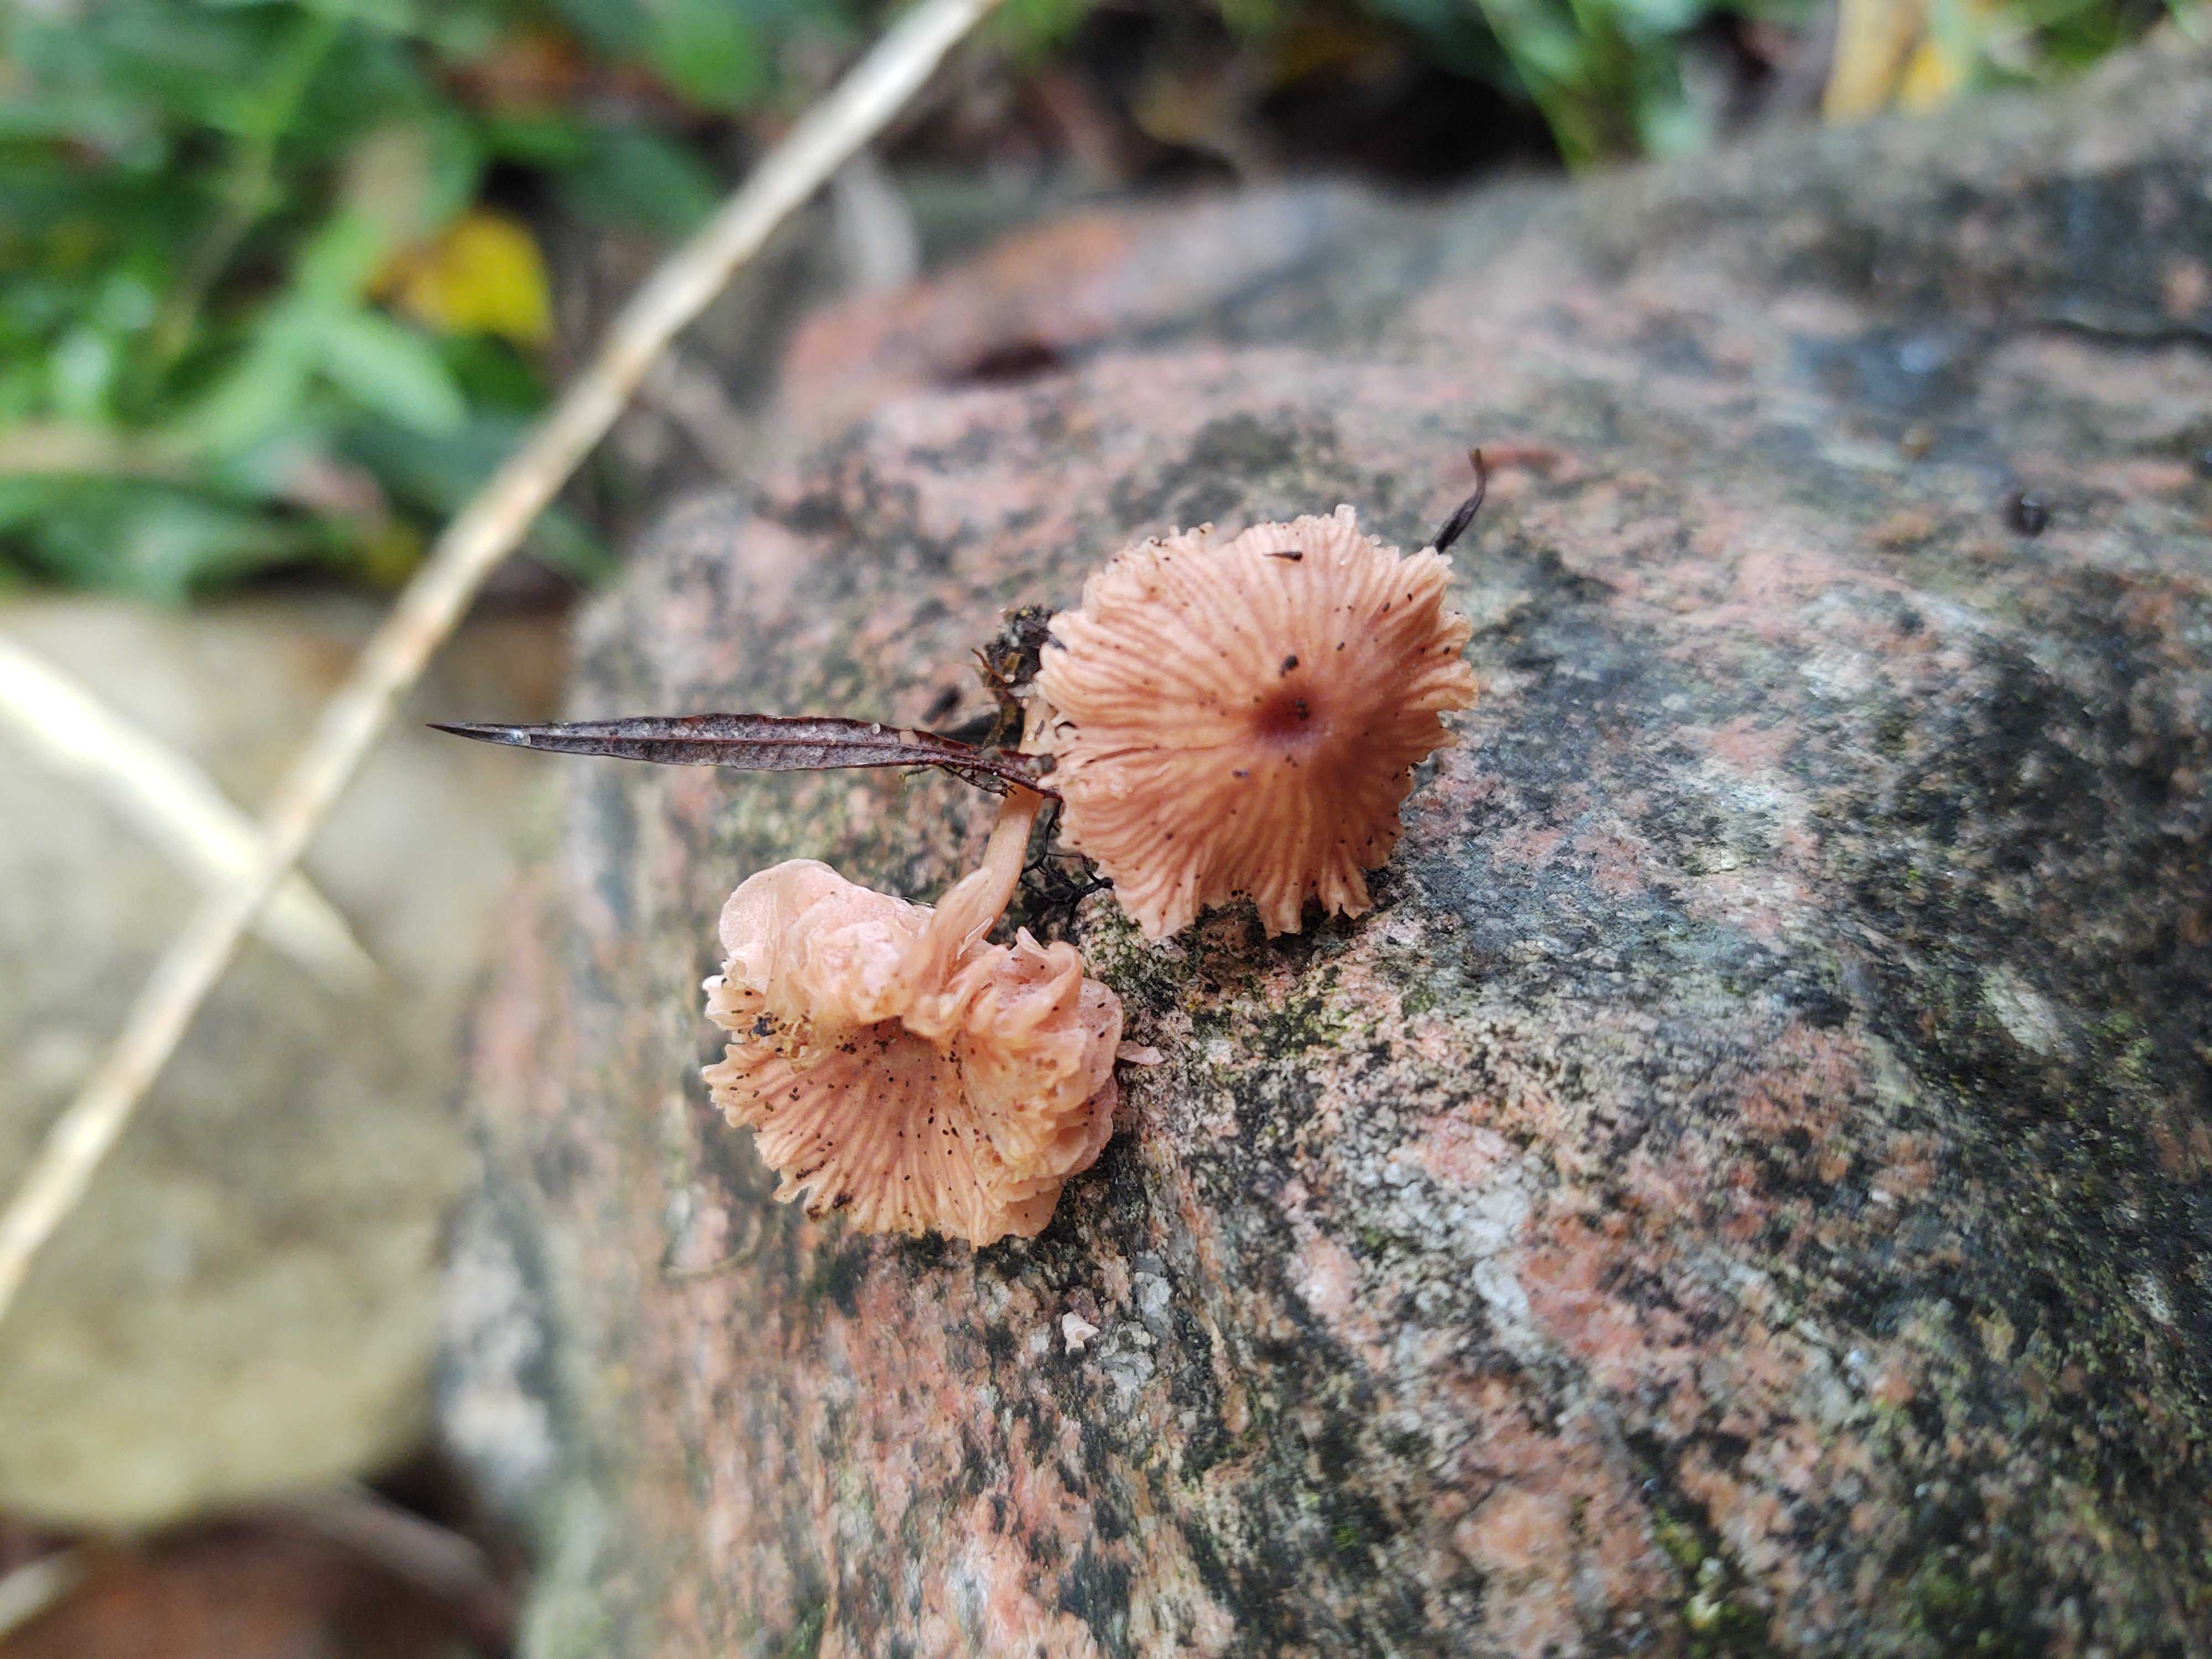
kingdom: Fungi
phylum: Basidiomycota
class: Agaricomycetes
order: Agaricales
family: Hydnangiaceae
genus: Laccaria
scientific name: Laccaria tortilis
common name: krybende ametysthat
